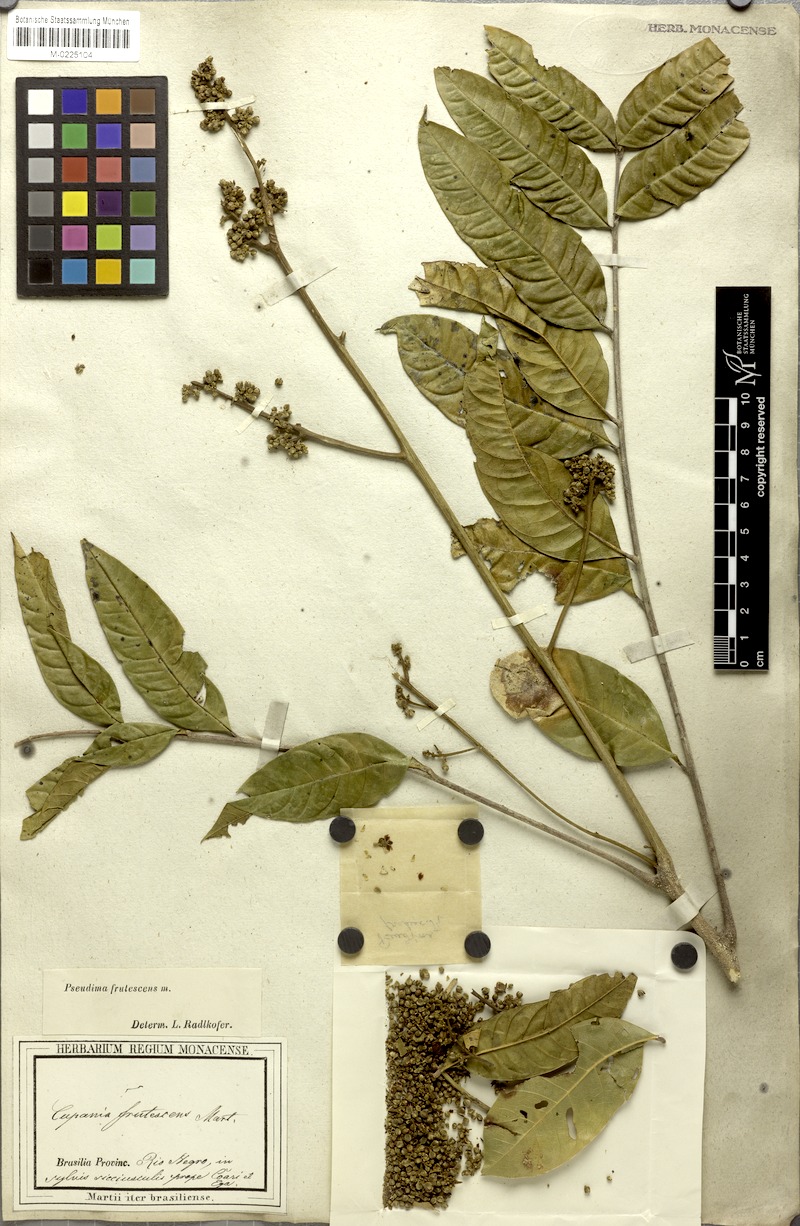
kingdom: Plantae
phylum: Tracheophyta
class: Magnoliopsida
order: Sapindales
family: Sapindaceae
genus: Pseudima
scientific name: Pseudima frutescens
